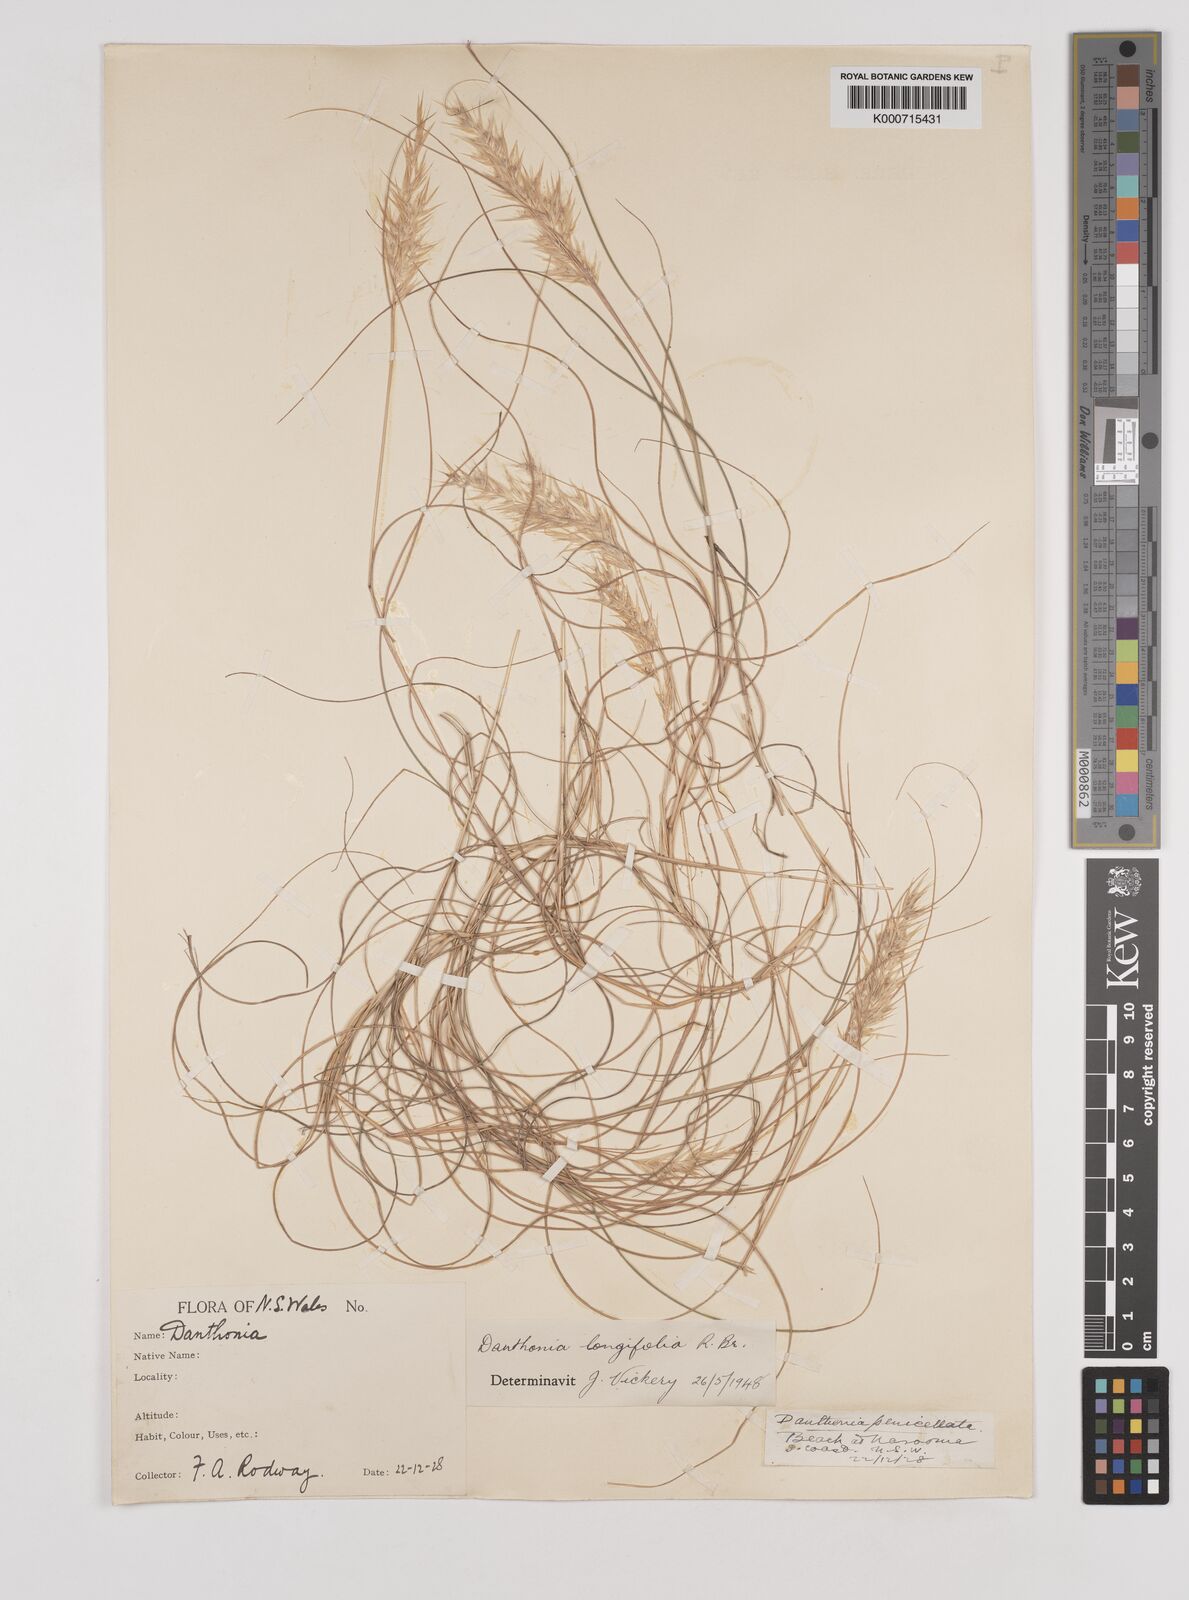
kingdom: Plantae
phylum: Tracheophyta
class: Liliopsida
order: Poales
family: Poaceae
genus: Rytidosperma
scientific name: Rytidosperma longifolium
